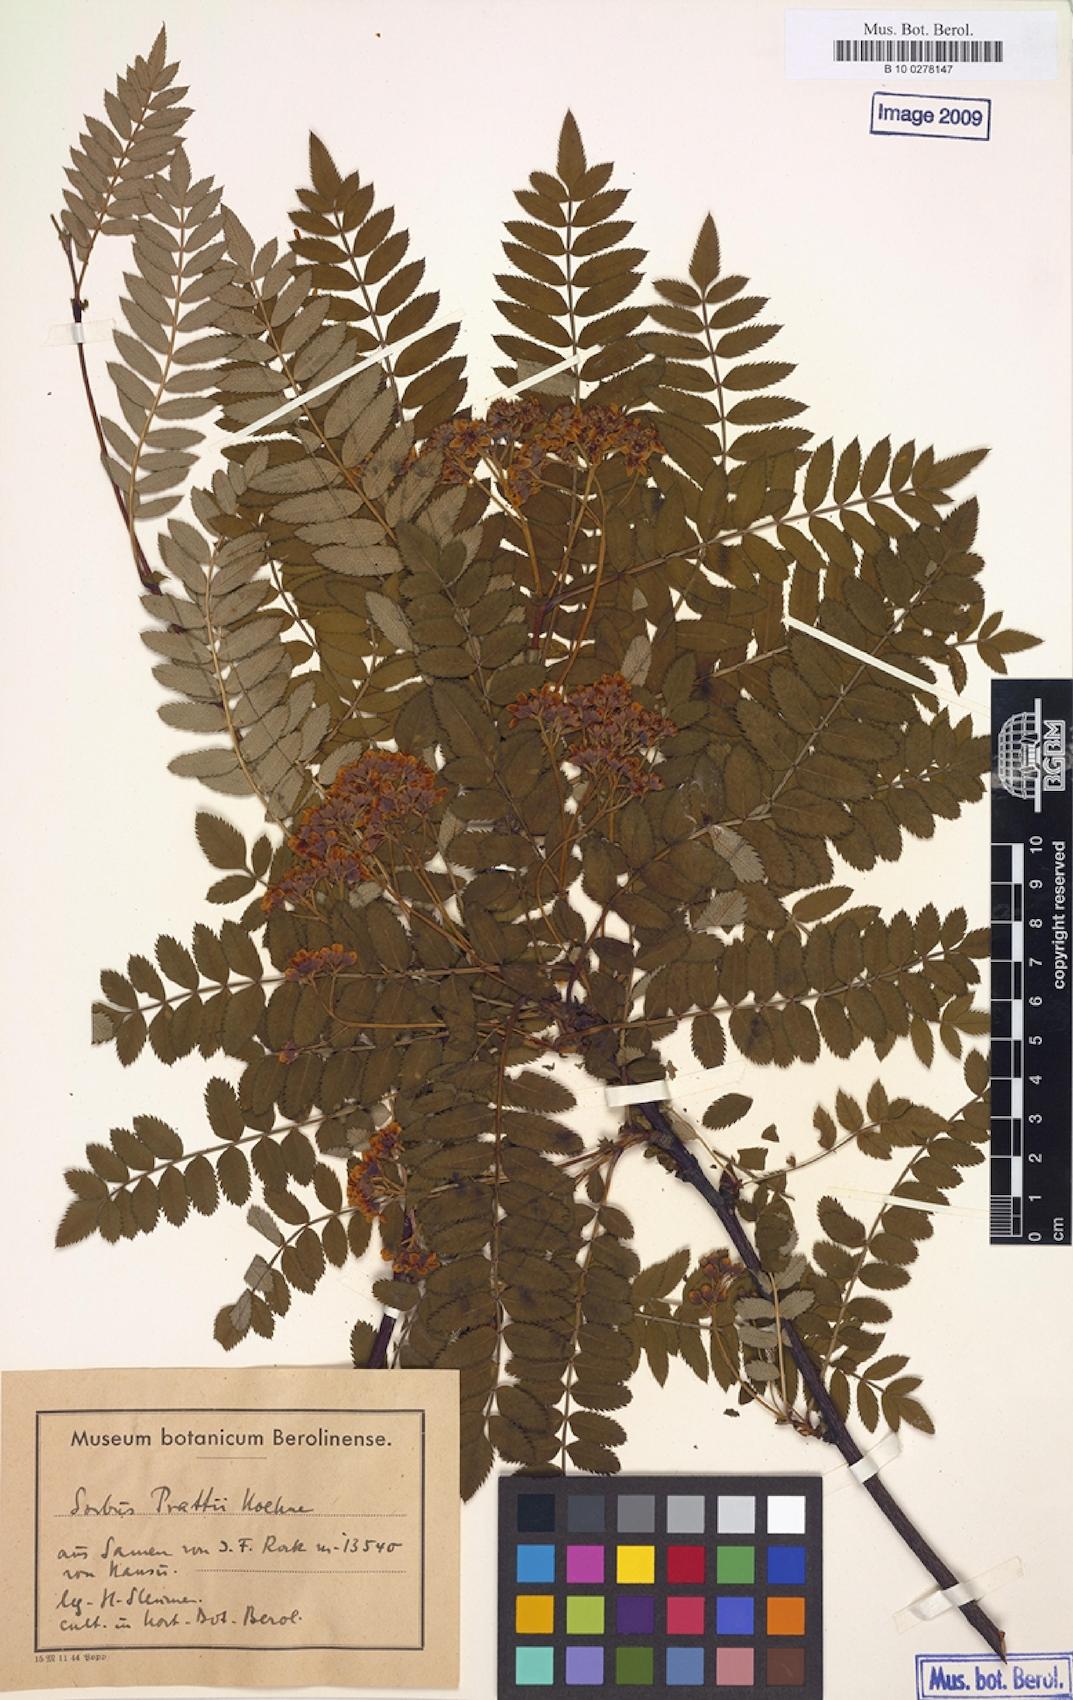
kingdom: Plantae
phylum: Tracheophyta
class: Magnoliopsida
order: Rosales
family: Rosaceae
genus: Sorbus
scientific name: Sorbus prattii
